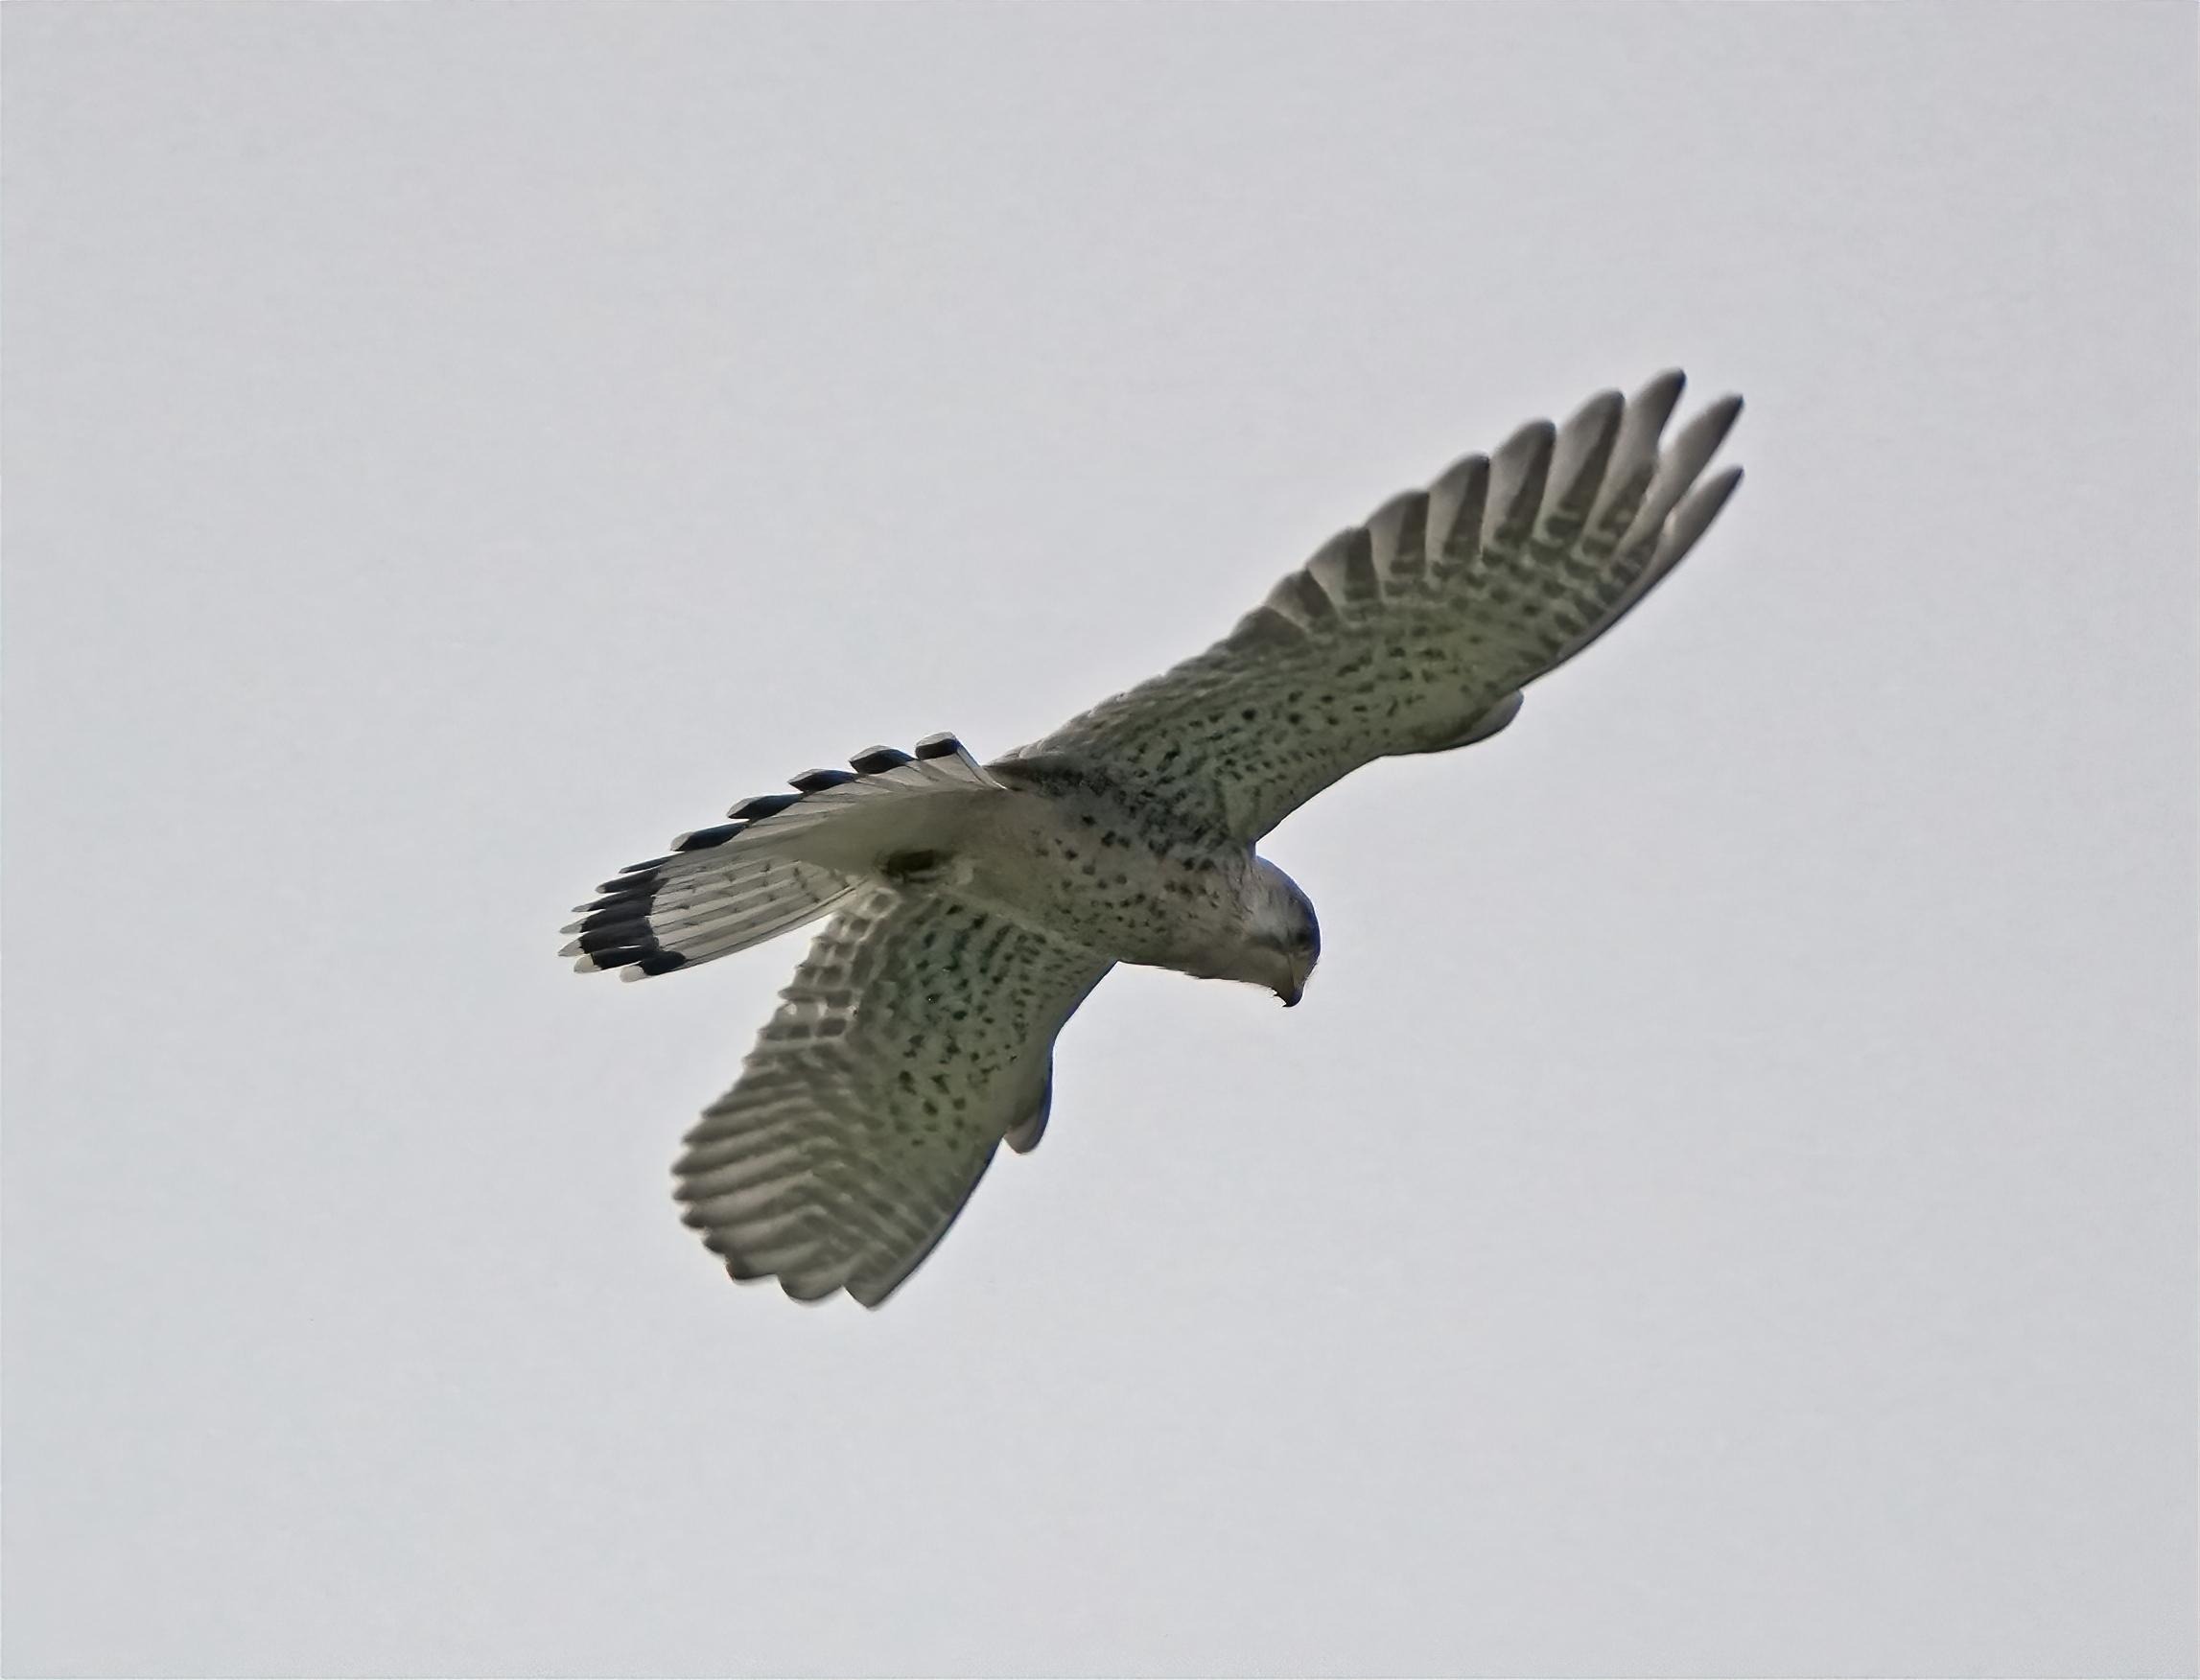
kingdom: Animalia
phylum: Chordata
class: Aves
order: Falconiformes
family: Falconidae
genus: Falco
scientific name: Falco tinnunculus
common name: Tårnfalk
